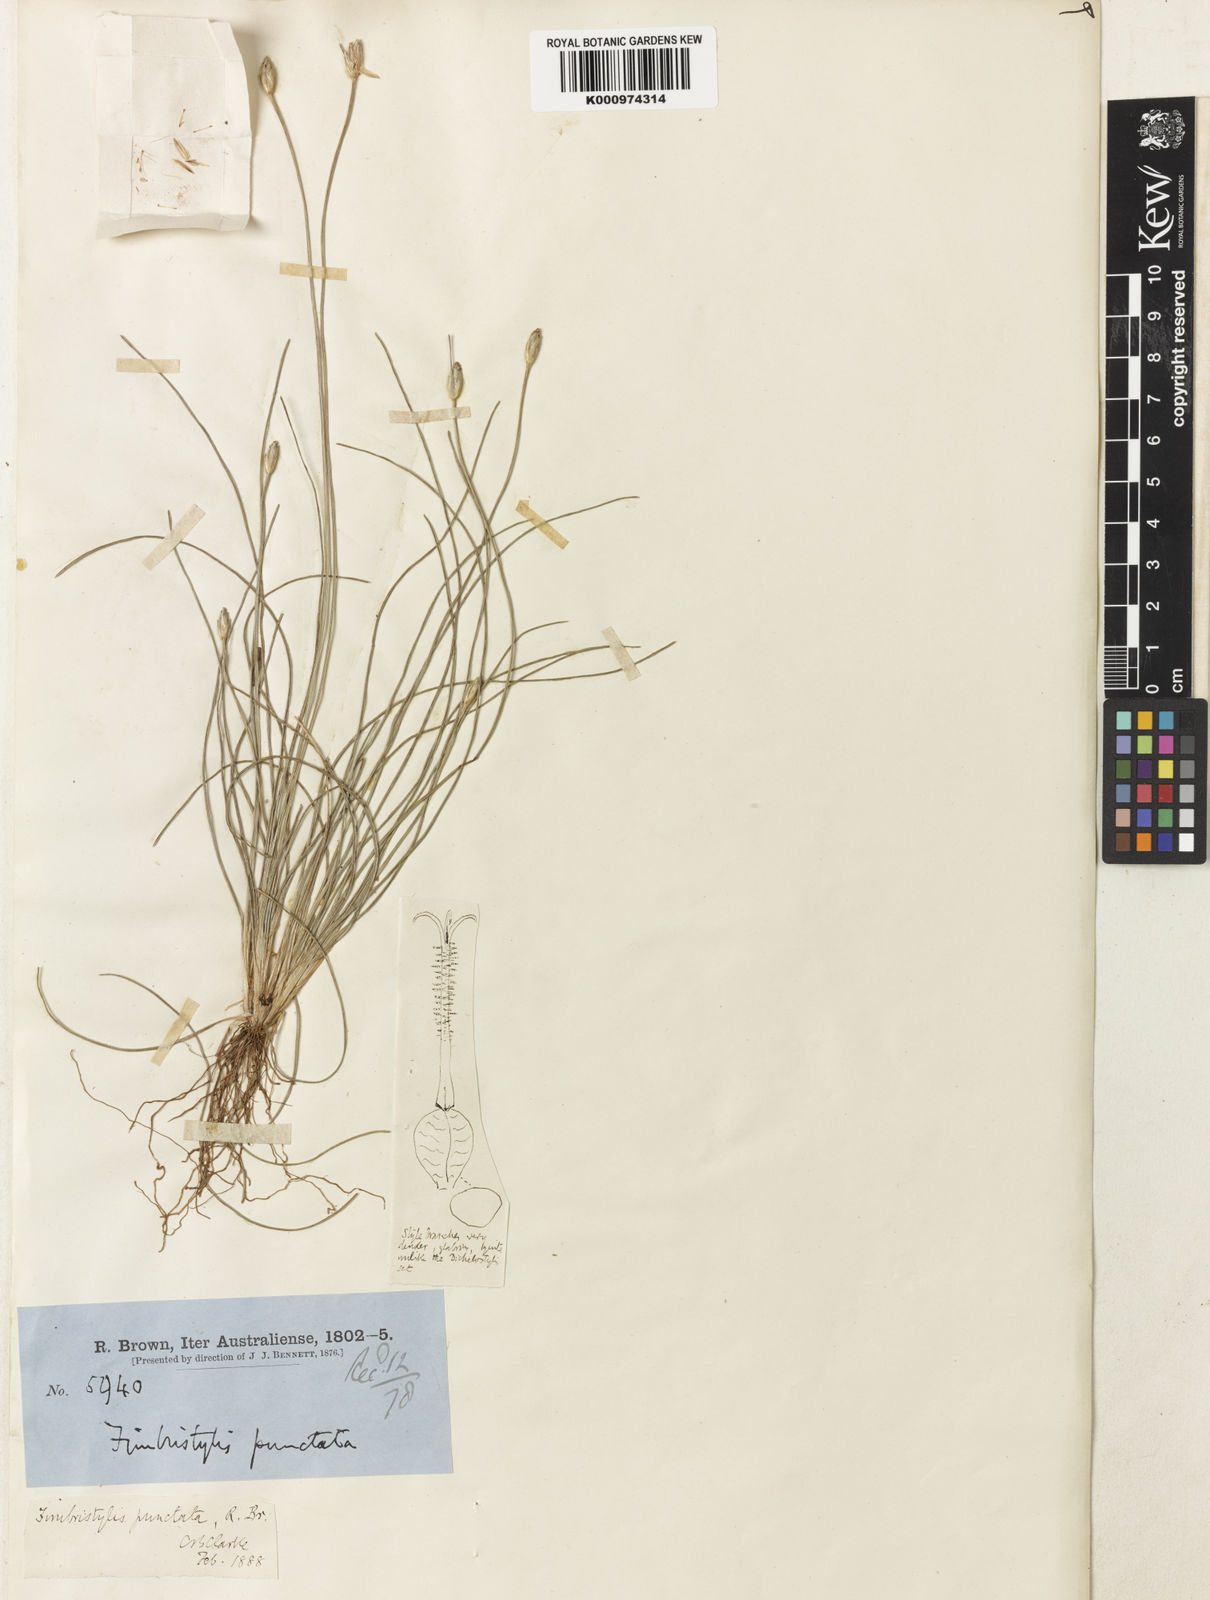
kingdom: Plantae
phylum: Tracheophyta
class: Liliopsida
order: Poales
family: Cyperaceae
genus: Fimbristylis
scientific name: Fimbristylis punctata
